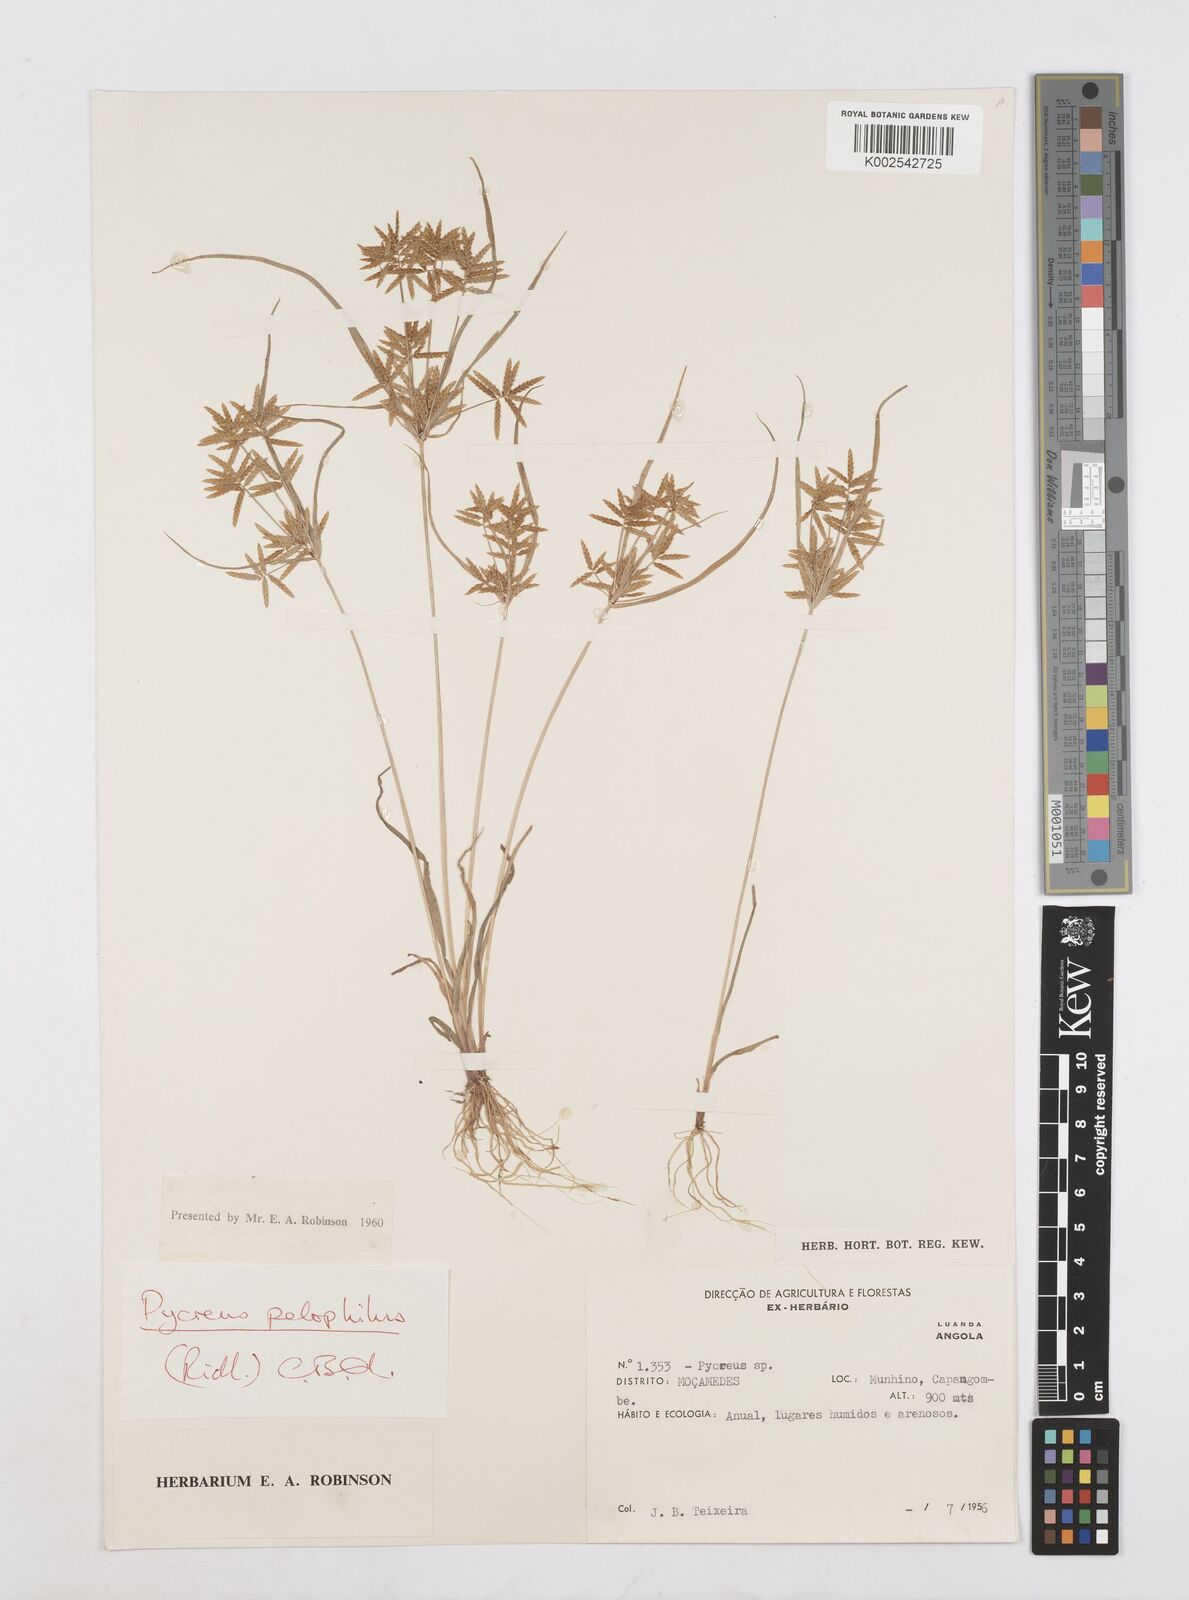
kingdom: Plantae
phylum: Tracheophyta
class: Liliopsida
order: Poales
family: Cyperaceae
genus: Cyperus
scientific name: Cyperus pelophilus
